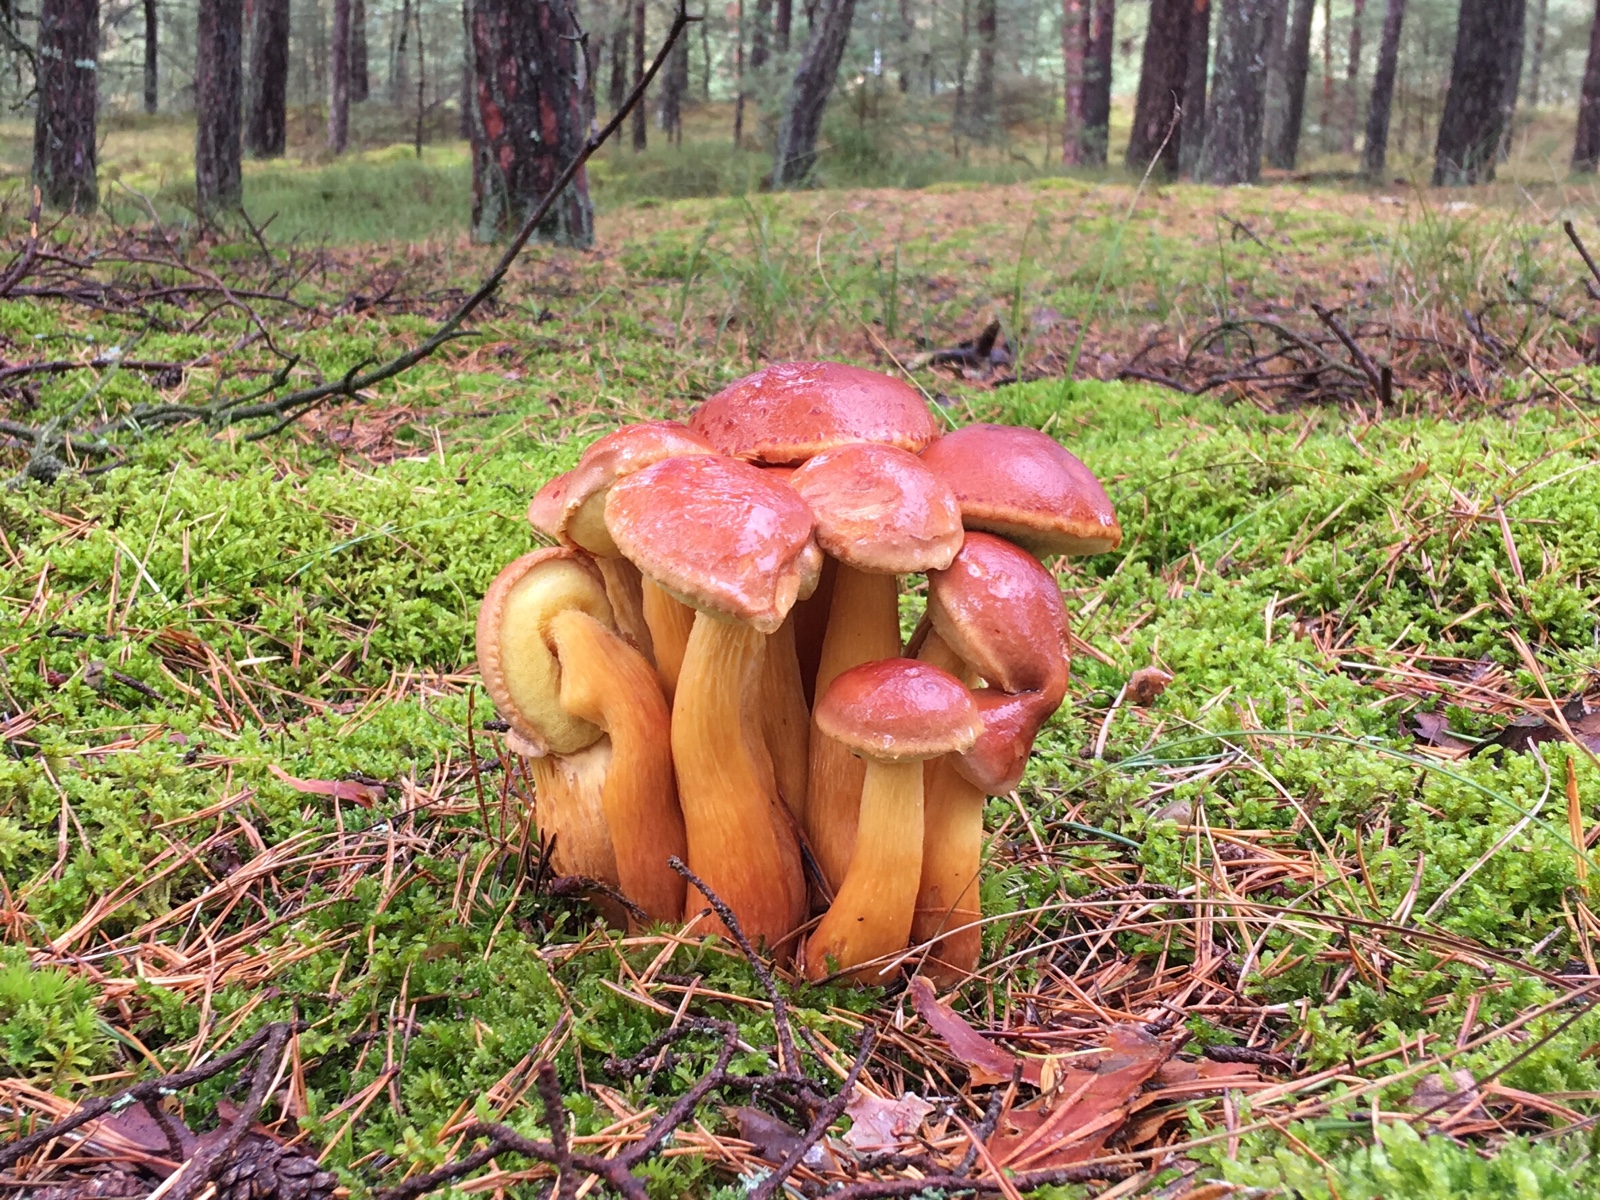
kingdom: Fungi
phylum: Basidiomycota
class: Agaricomycetes
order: Boletales
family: Boletaceae
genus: Aureoboletus
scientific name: Aureoboletus projectellus
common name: ribbestokket rørhat
